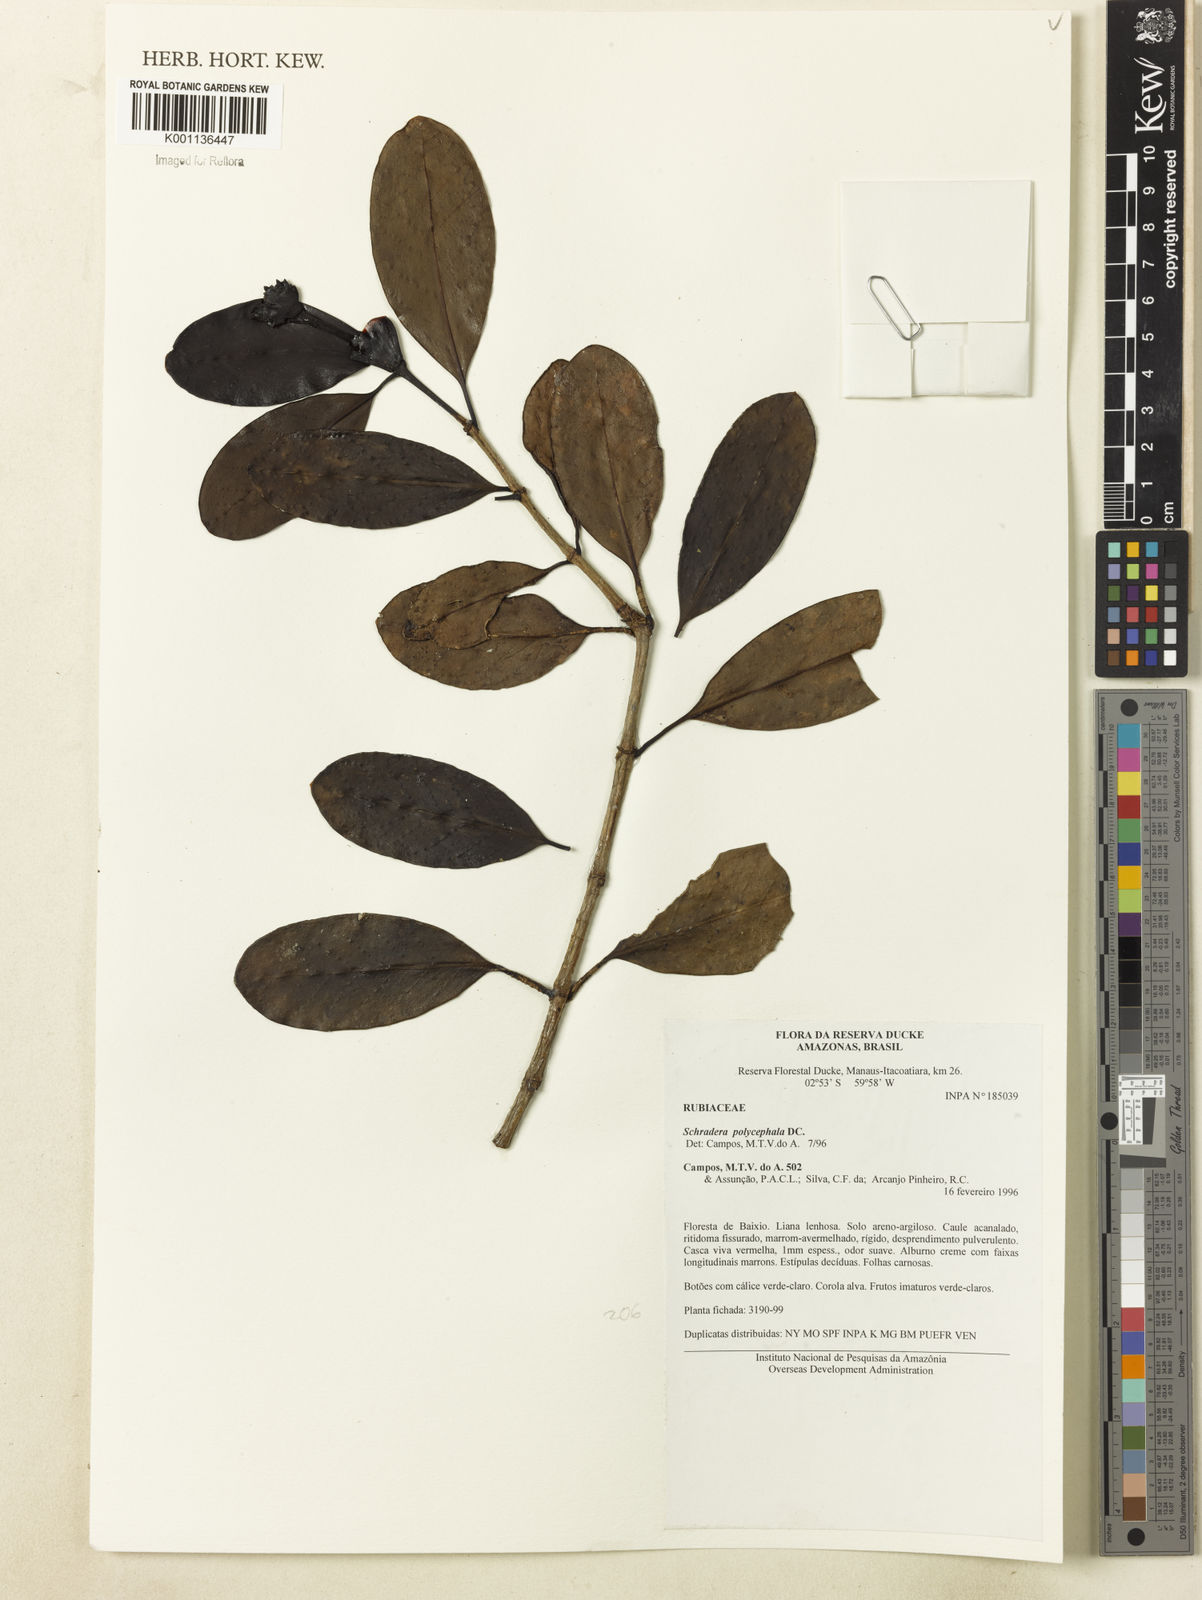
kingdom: Plantae
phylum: Tracheophyta
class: Magnoliopsida
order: Gentianales
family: Rubiaceae
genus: Schradera
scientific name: Schradera polycephala
